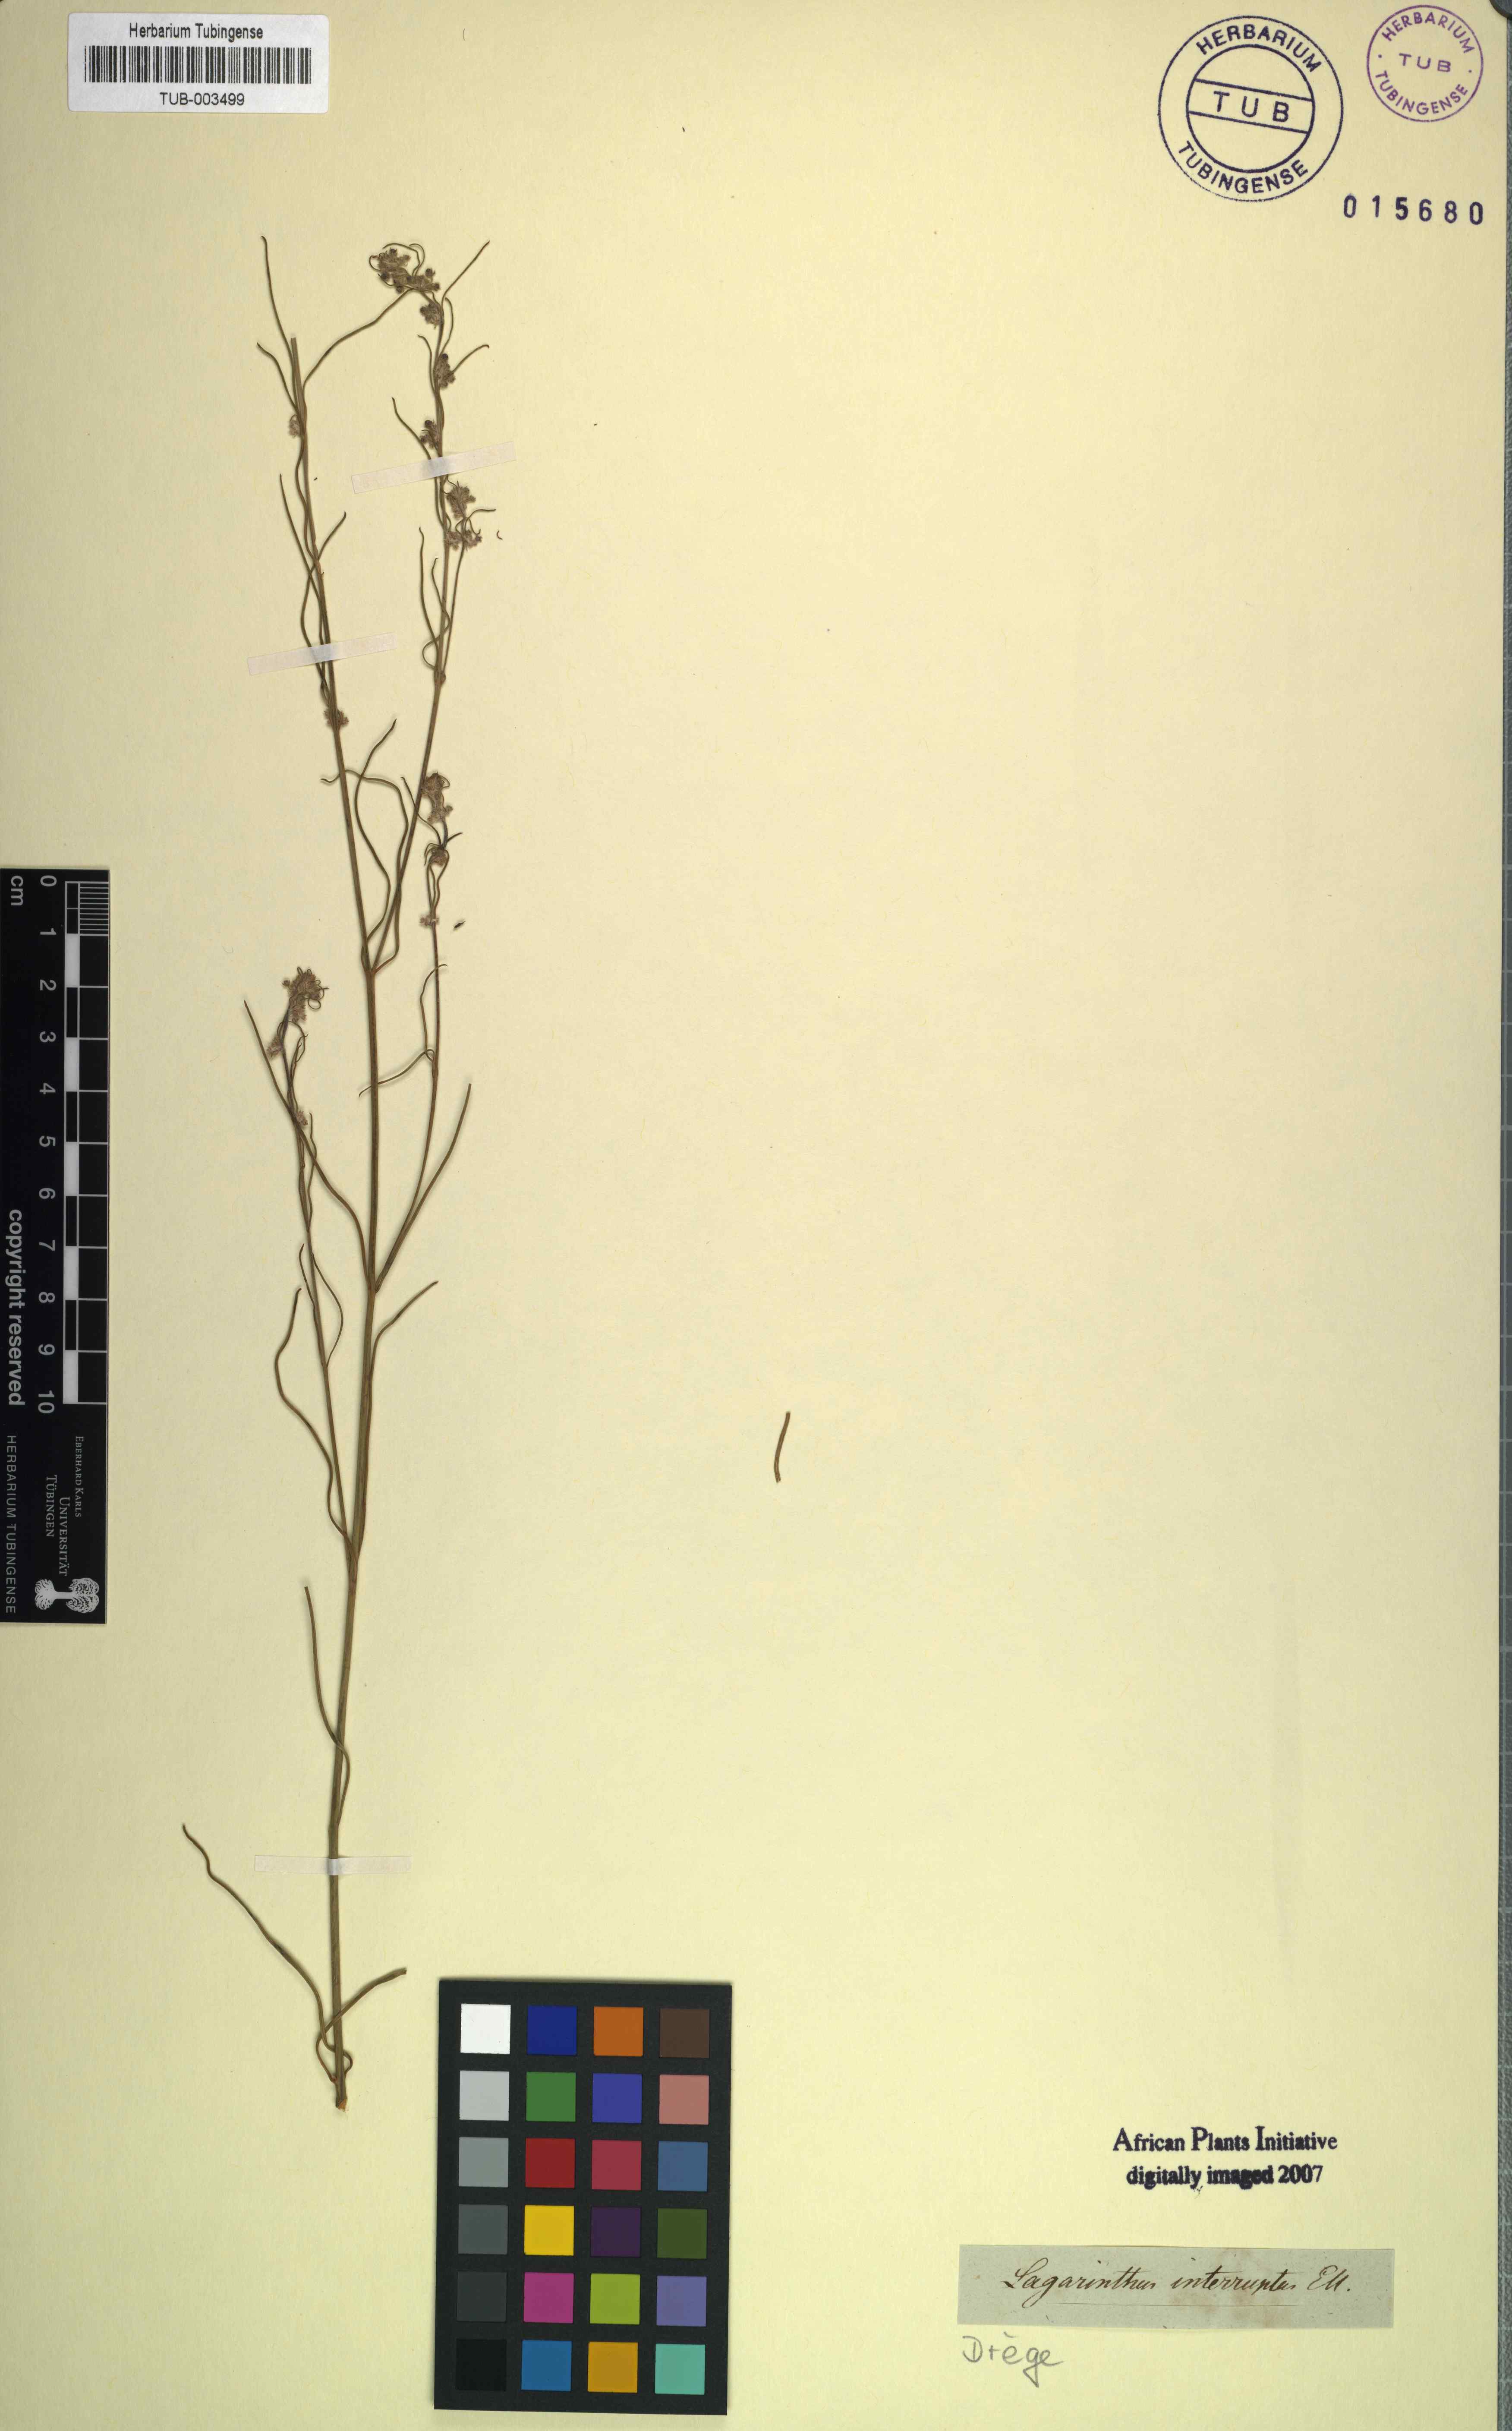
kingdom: Plantae
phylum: Tracheophyta
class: Magnoliopsida
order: Gentianales
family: Apocynaceae
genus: Aspidoglossum
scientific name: Aspidoglossum interruptum
